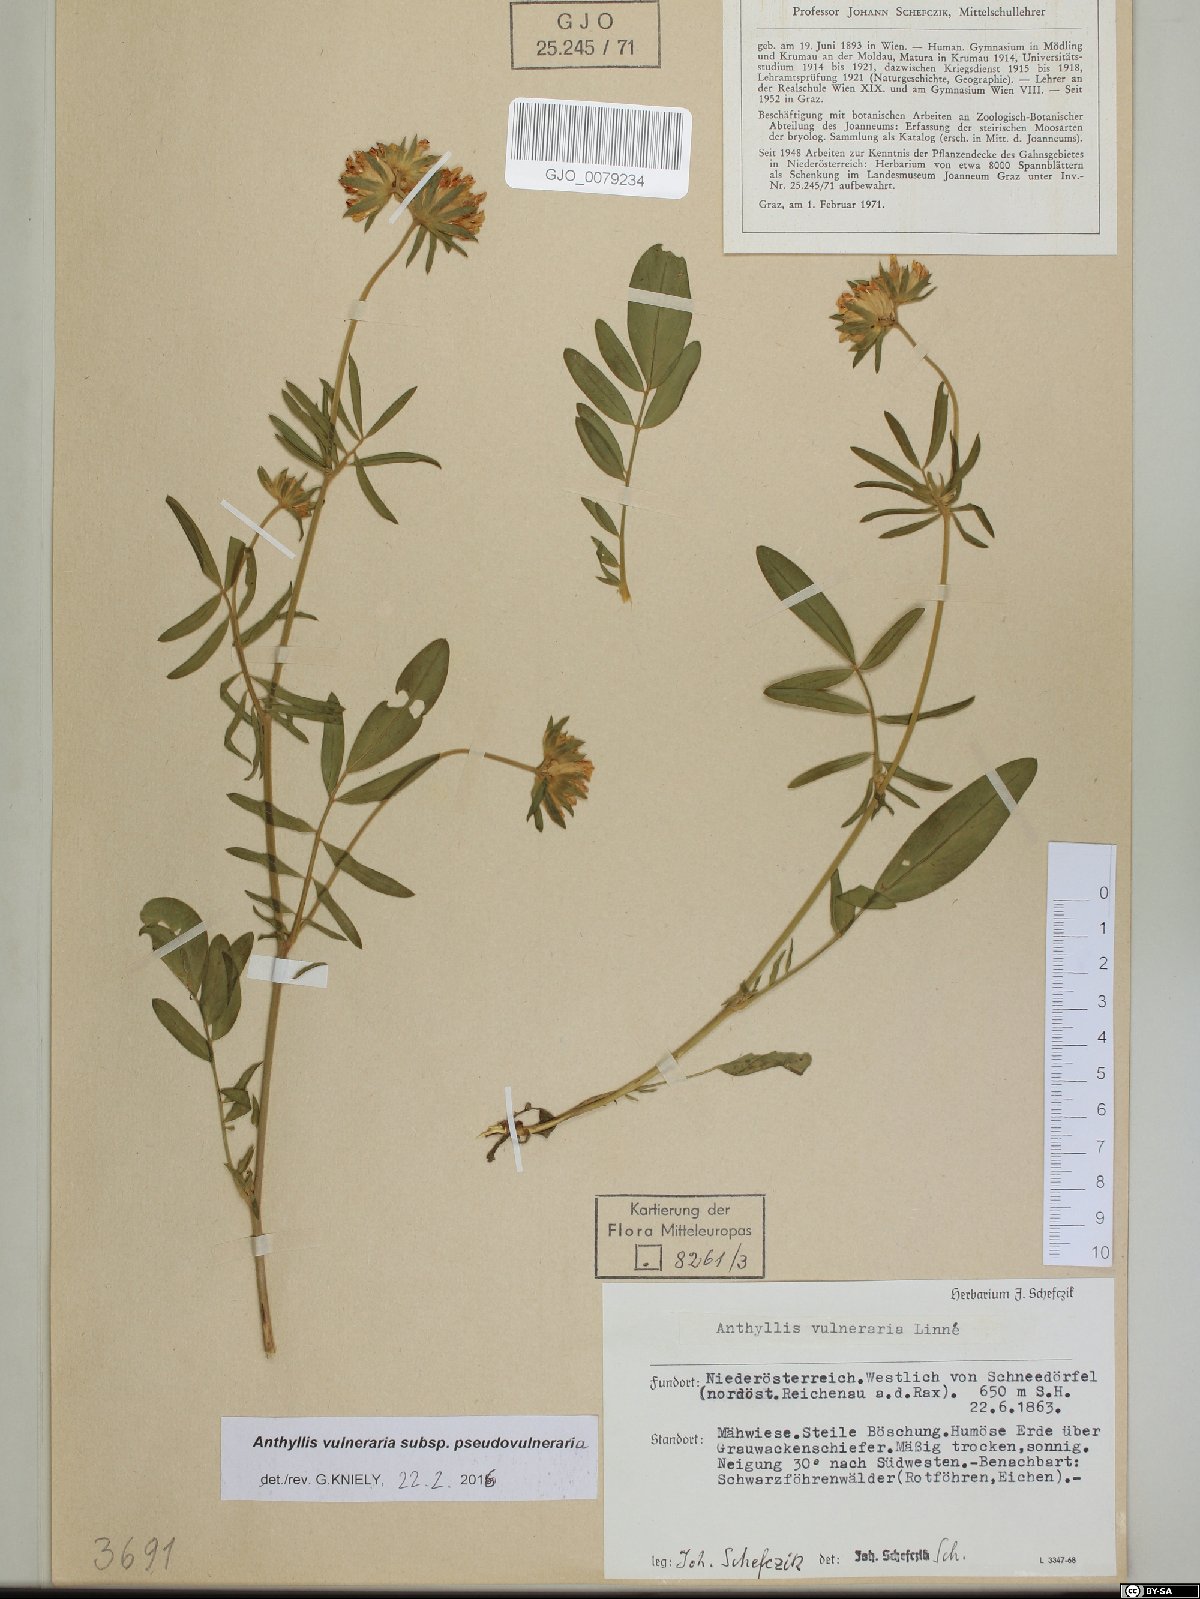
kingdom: Plantae
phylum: Tracheophyta
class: Magnoliopsida
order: Fabales
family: Fabaceae
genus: Anthyllis
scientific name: Anthyllis vulneraria
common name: Kidney vetch
